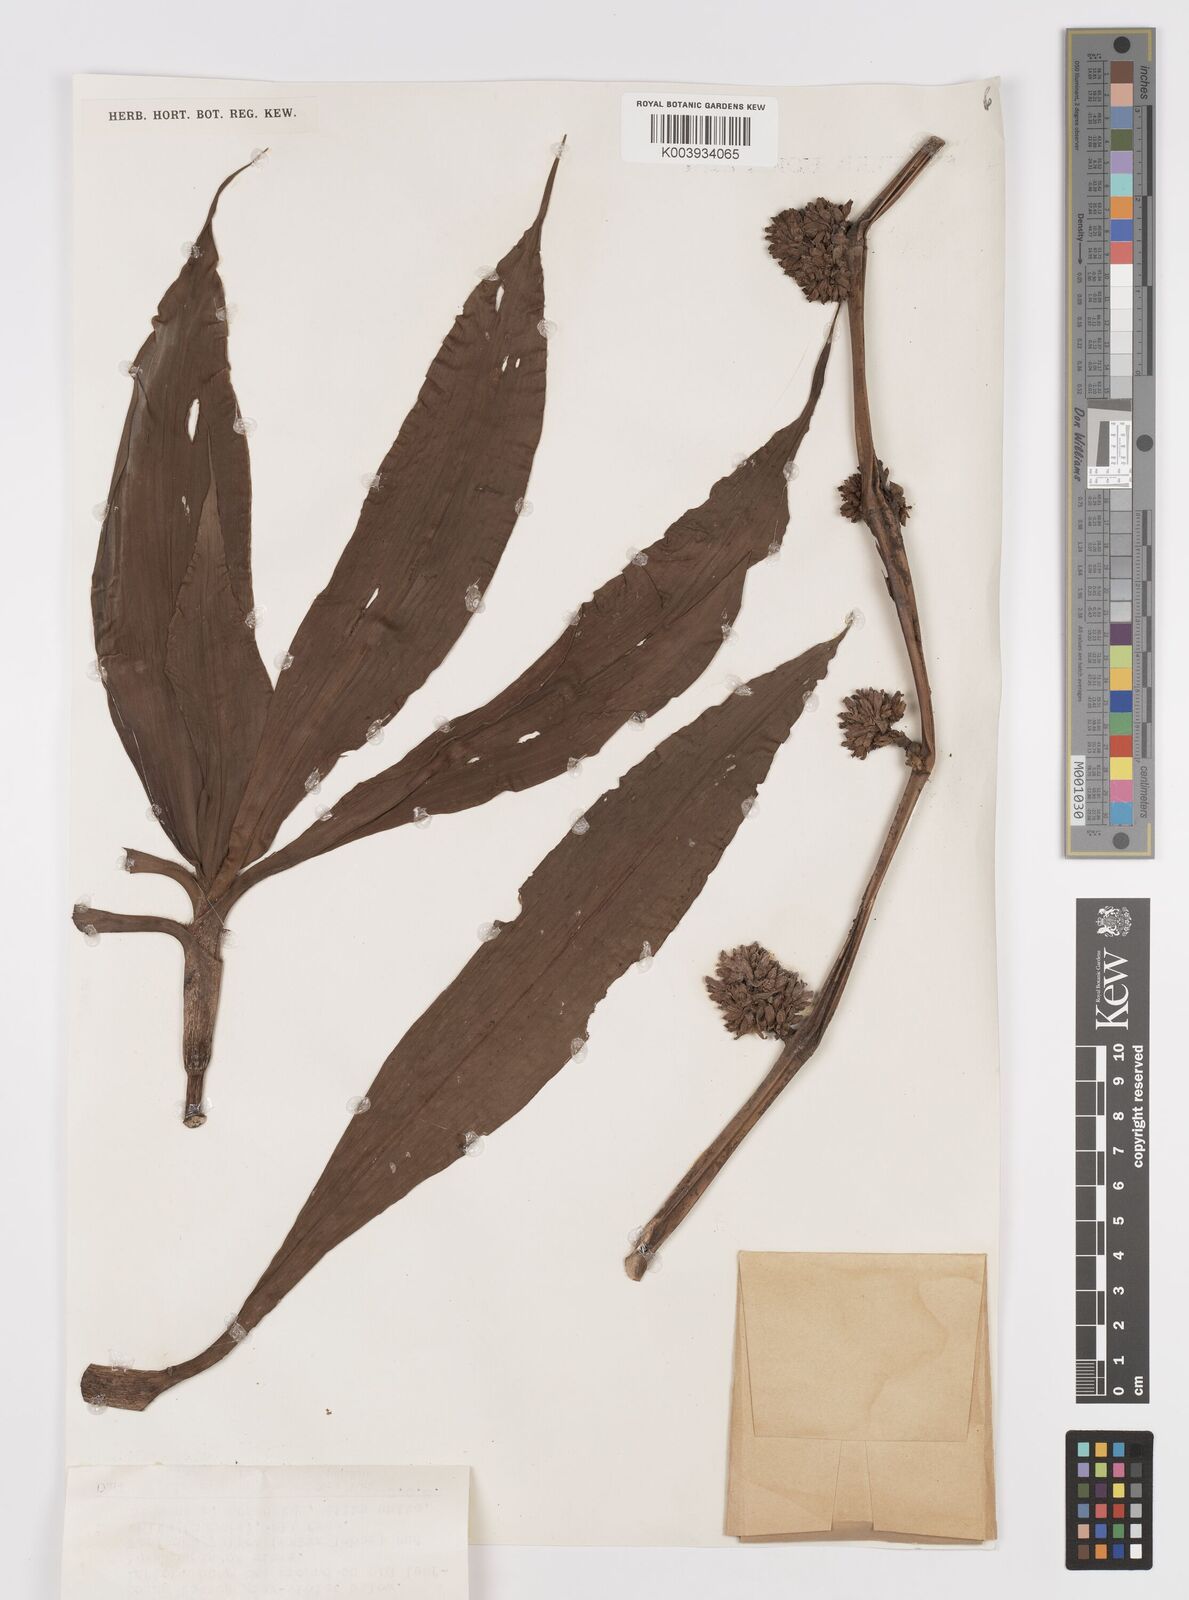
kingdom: Plantae
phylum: Tracheophyta
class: Liliopsida
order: Commelinales
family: Commelinaceae
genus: Amischotolype
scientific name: Amischotolype mollissima
